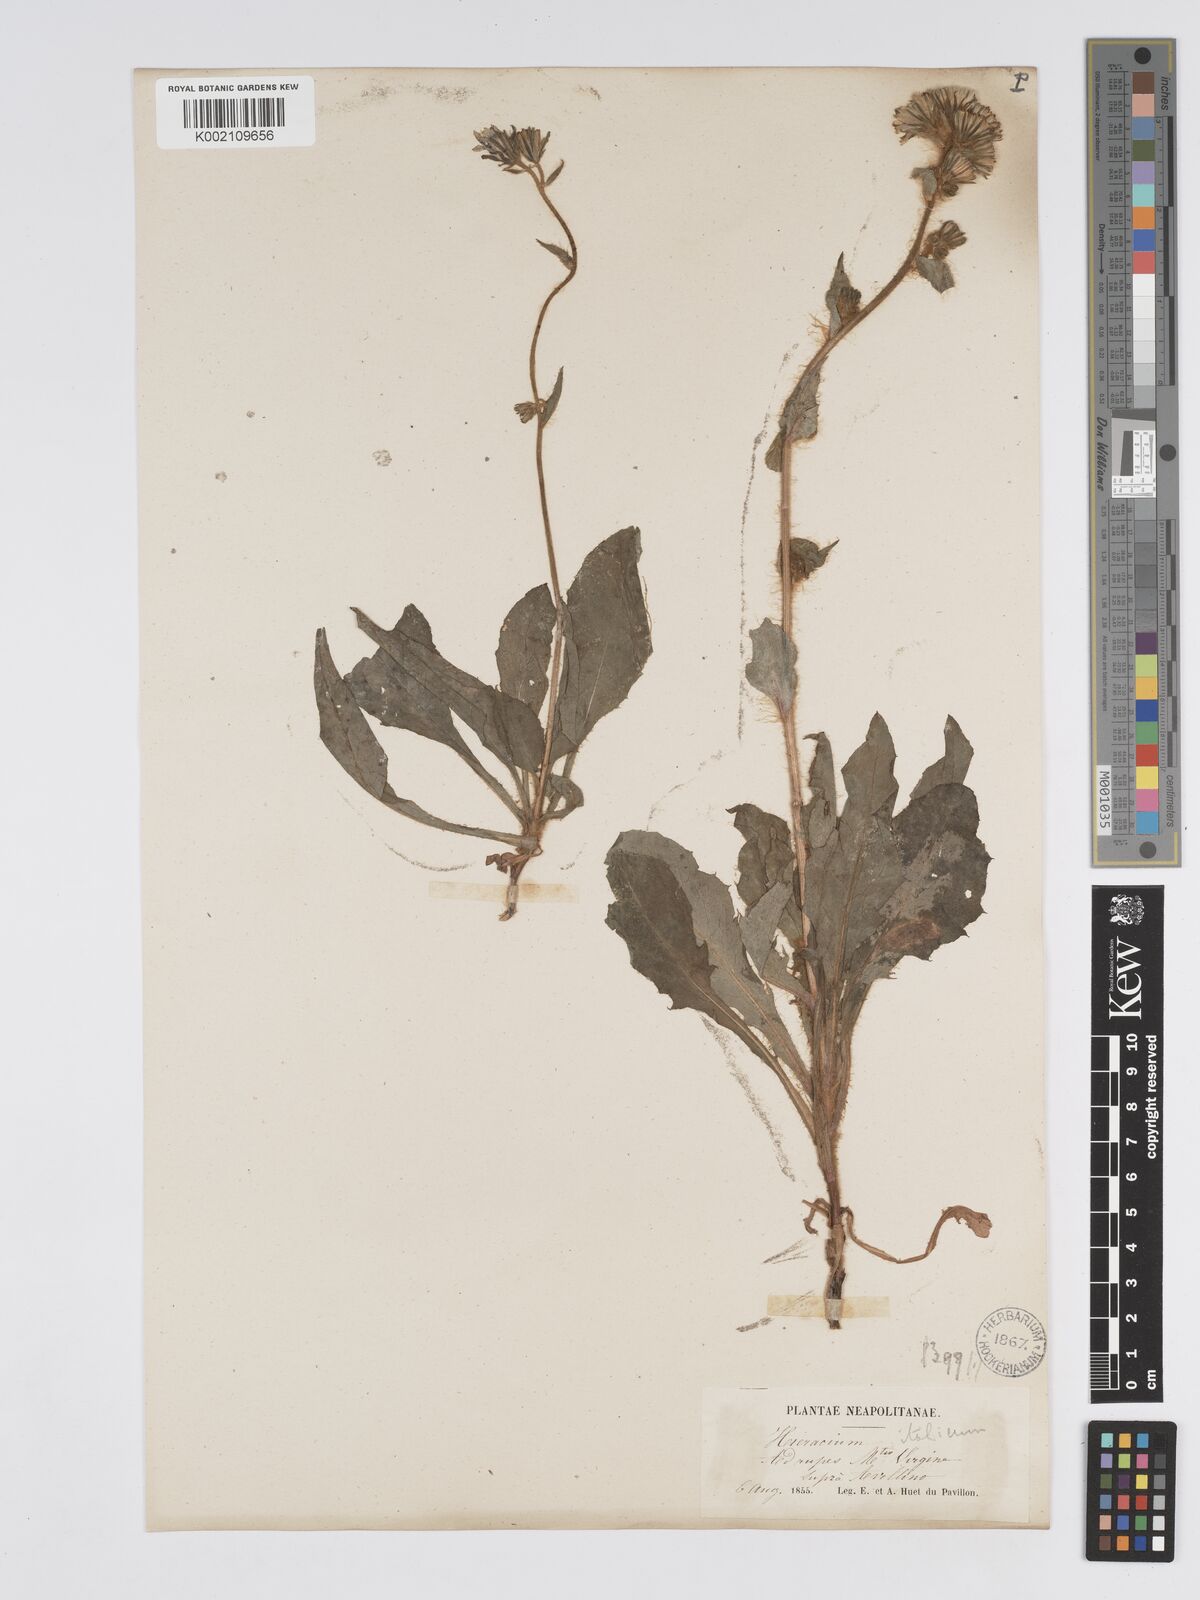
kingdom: Plantae
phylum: Tracheophyta
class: Magnoliopsida
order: Asterales
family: Asteraceae
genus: Hieracium
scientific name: Hieracium
